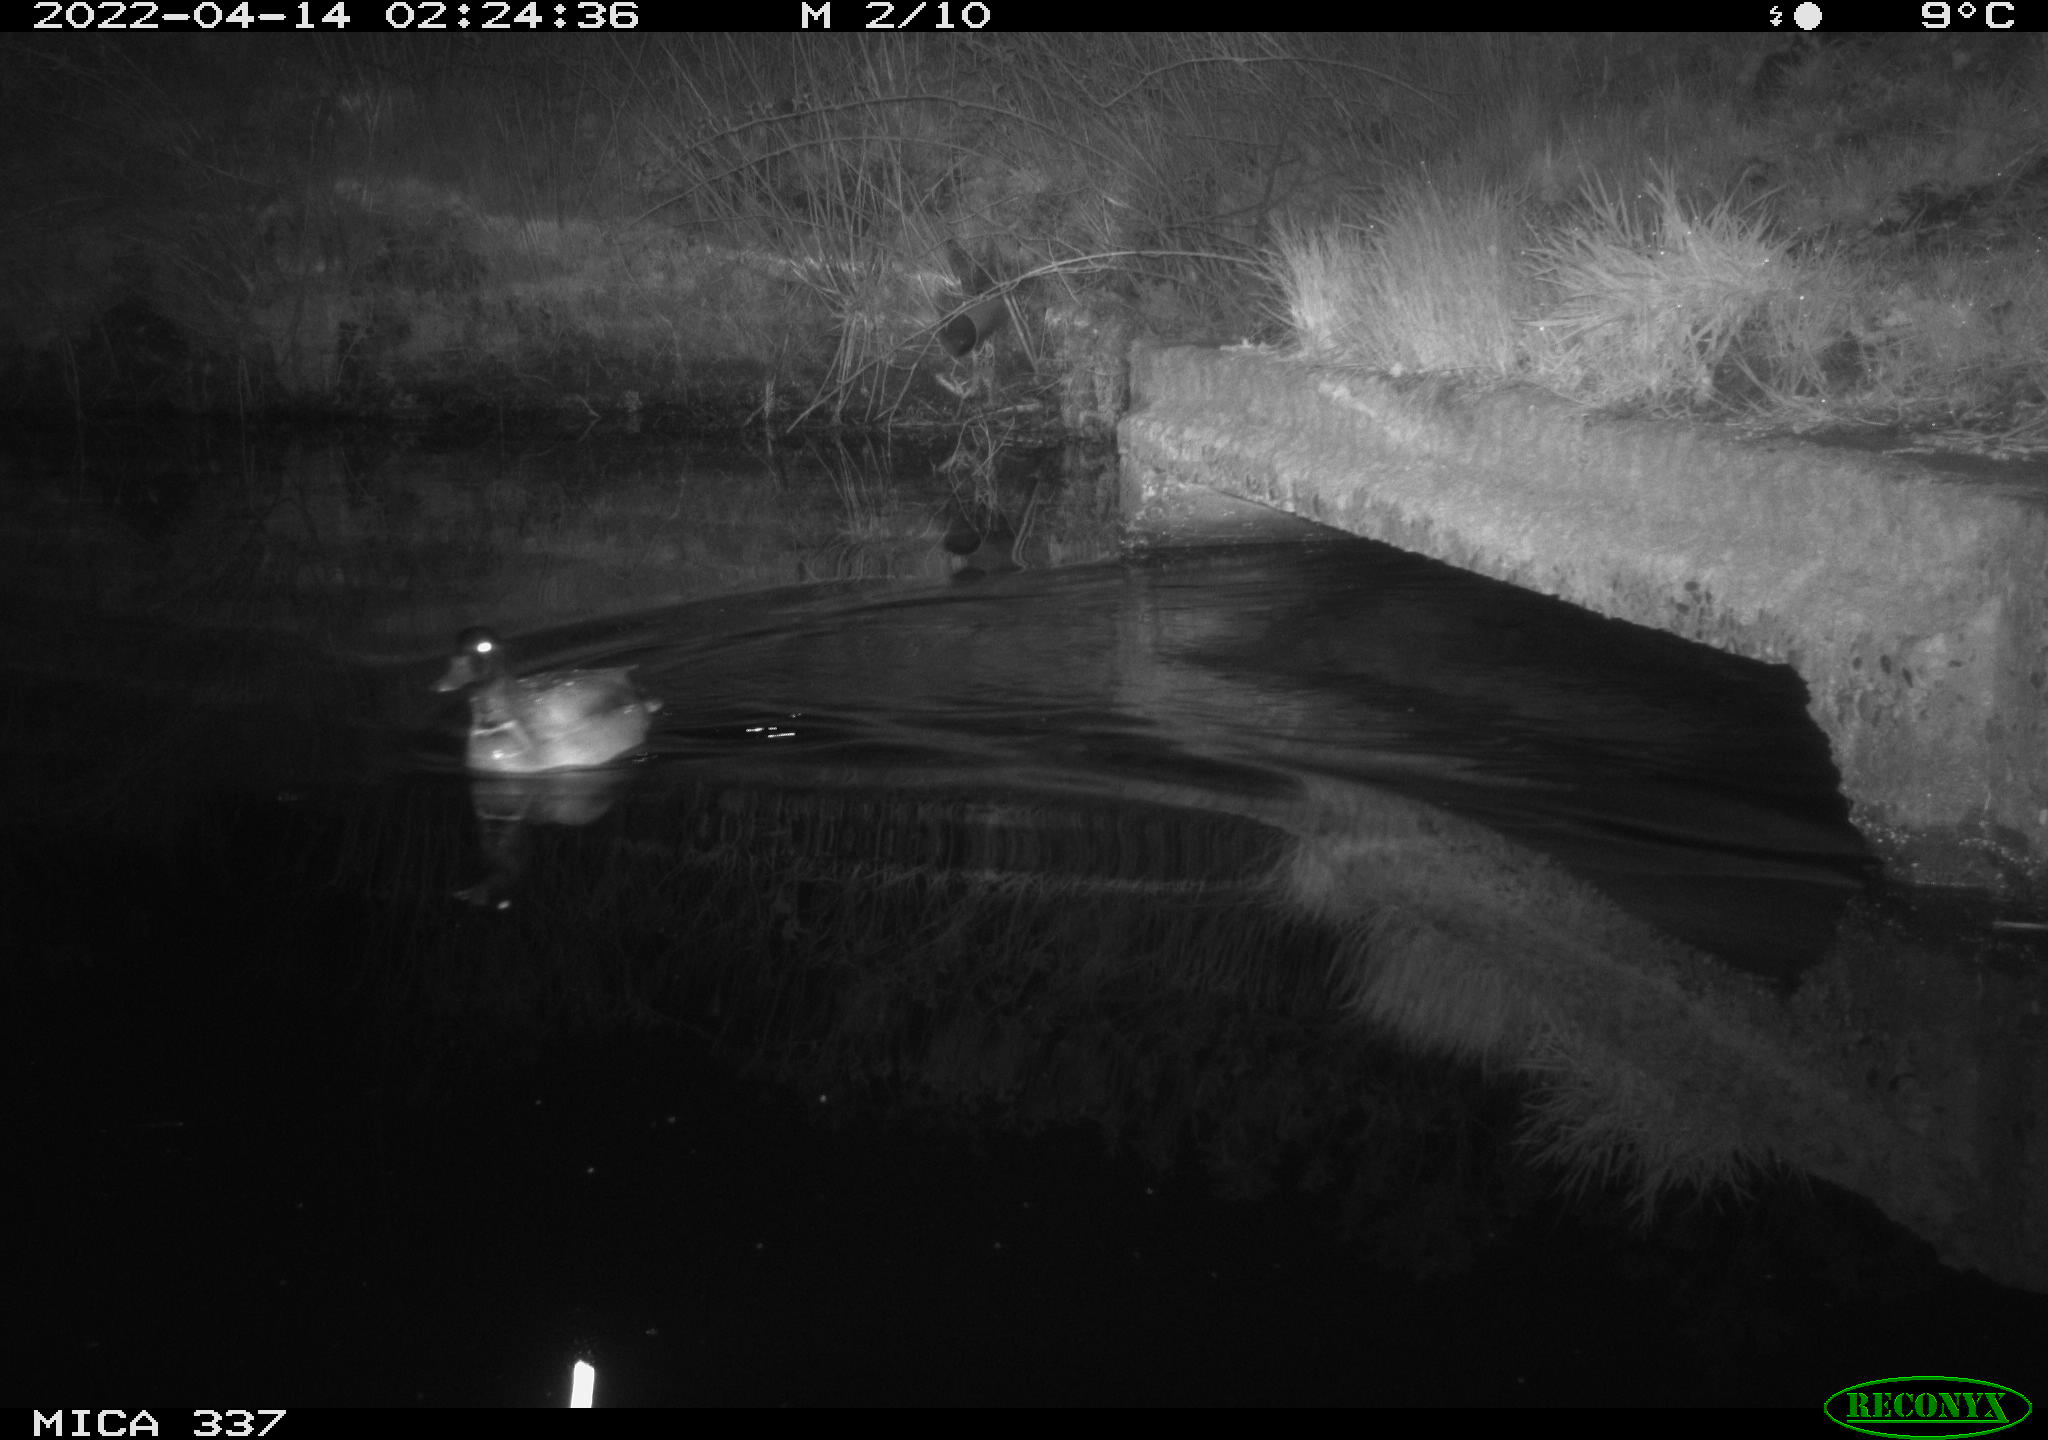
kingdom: Animalia
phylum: Chordata
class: Aves
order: Anseriformes
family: Anatidae
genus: Anas
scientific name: Anas platyrhynchos
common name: Mallard
